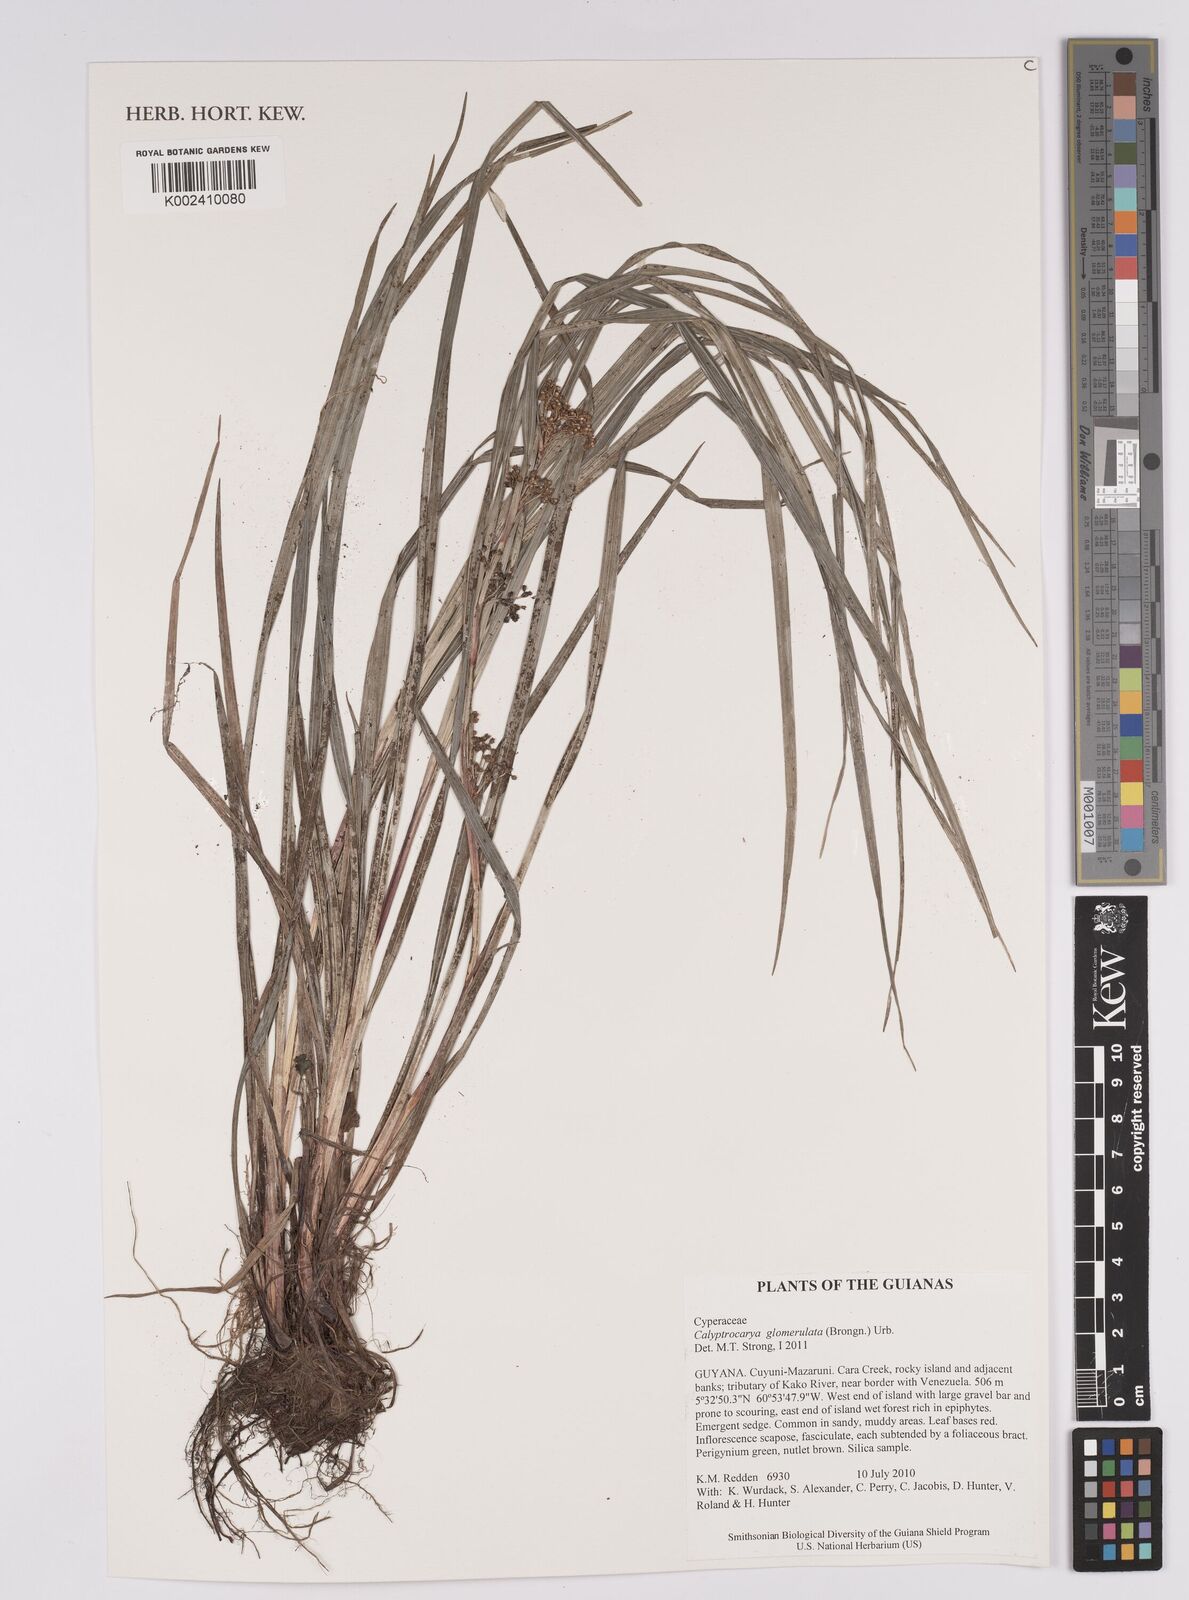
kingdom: Plantae
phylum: Tracheophyta
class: Liliopsida
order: Poales
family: Cyperaceae
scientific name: Cyperaceae
